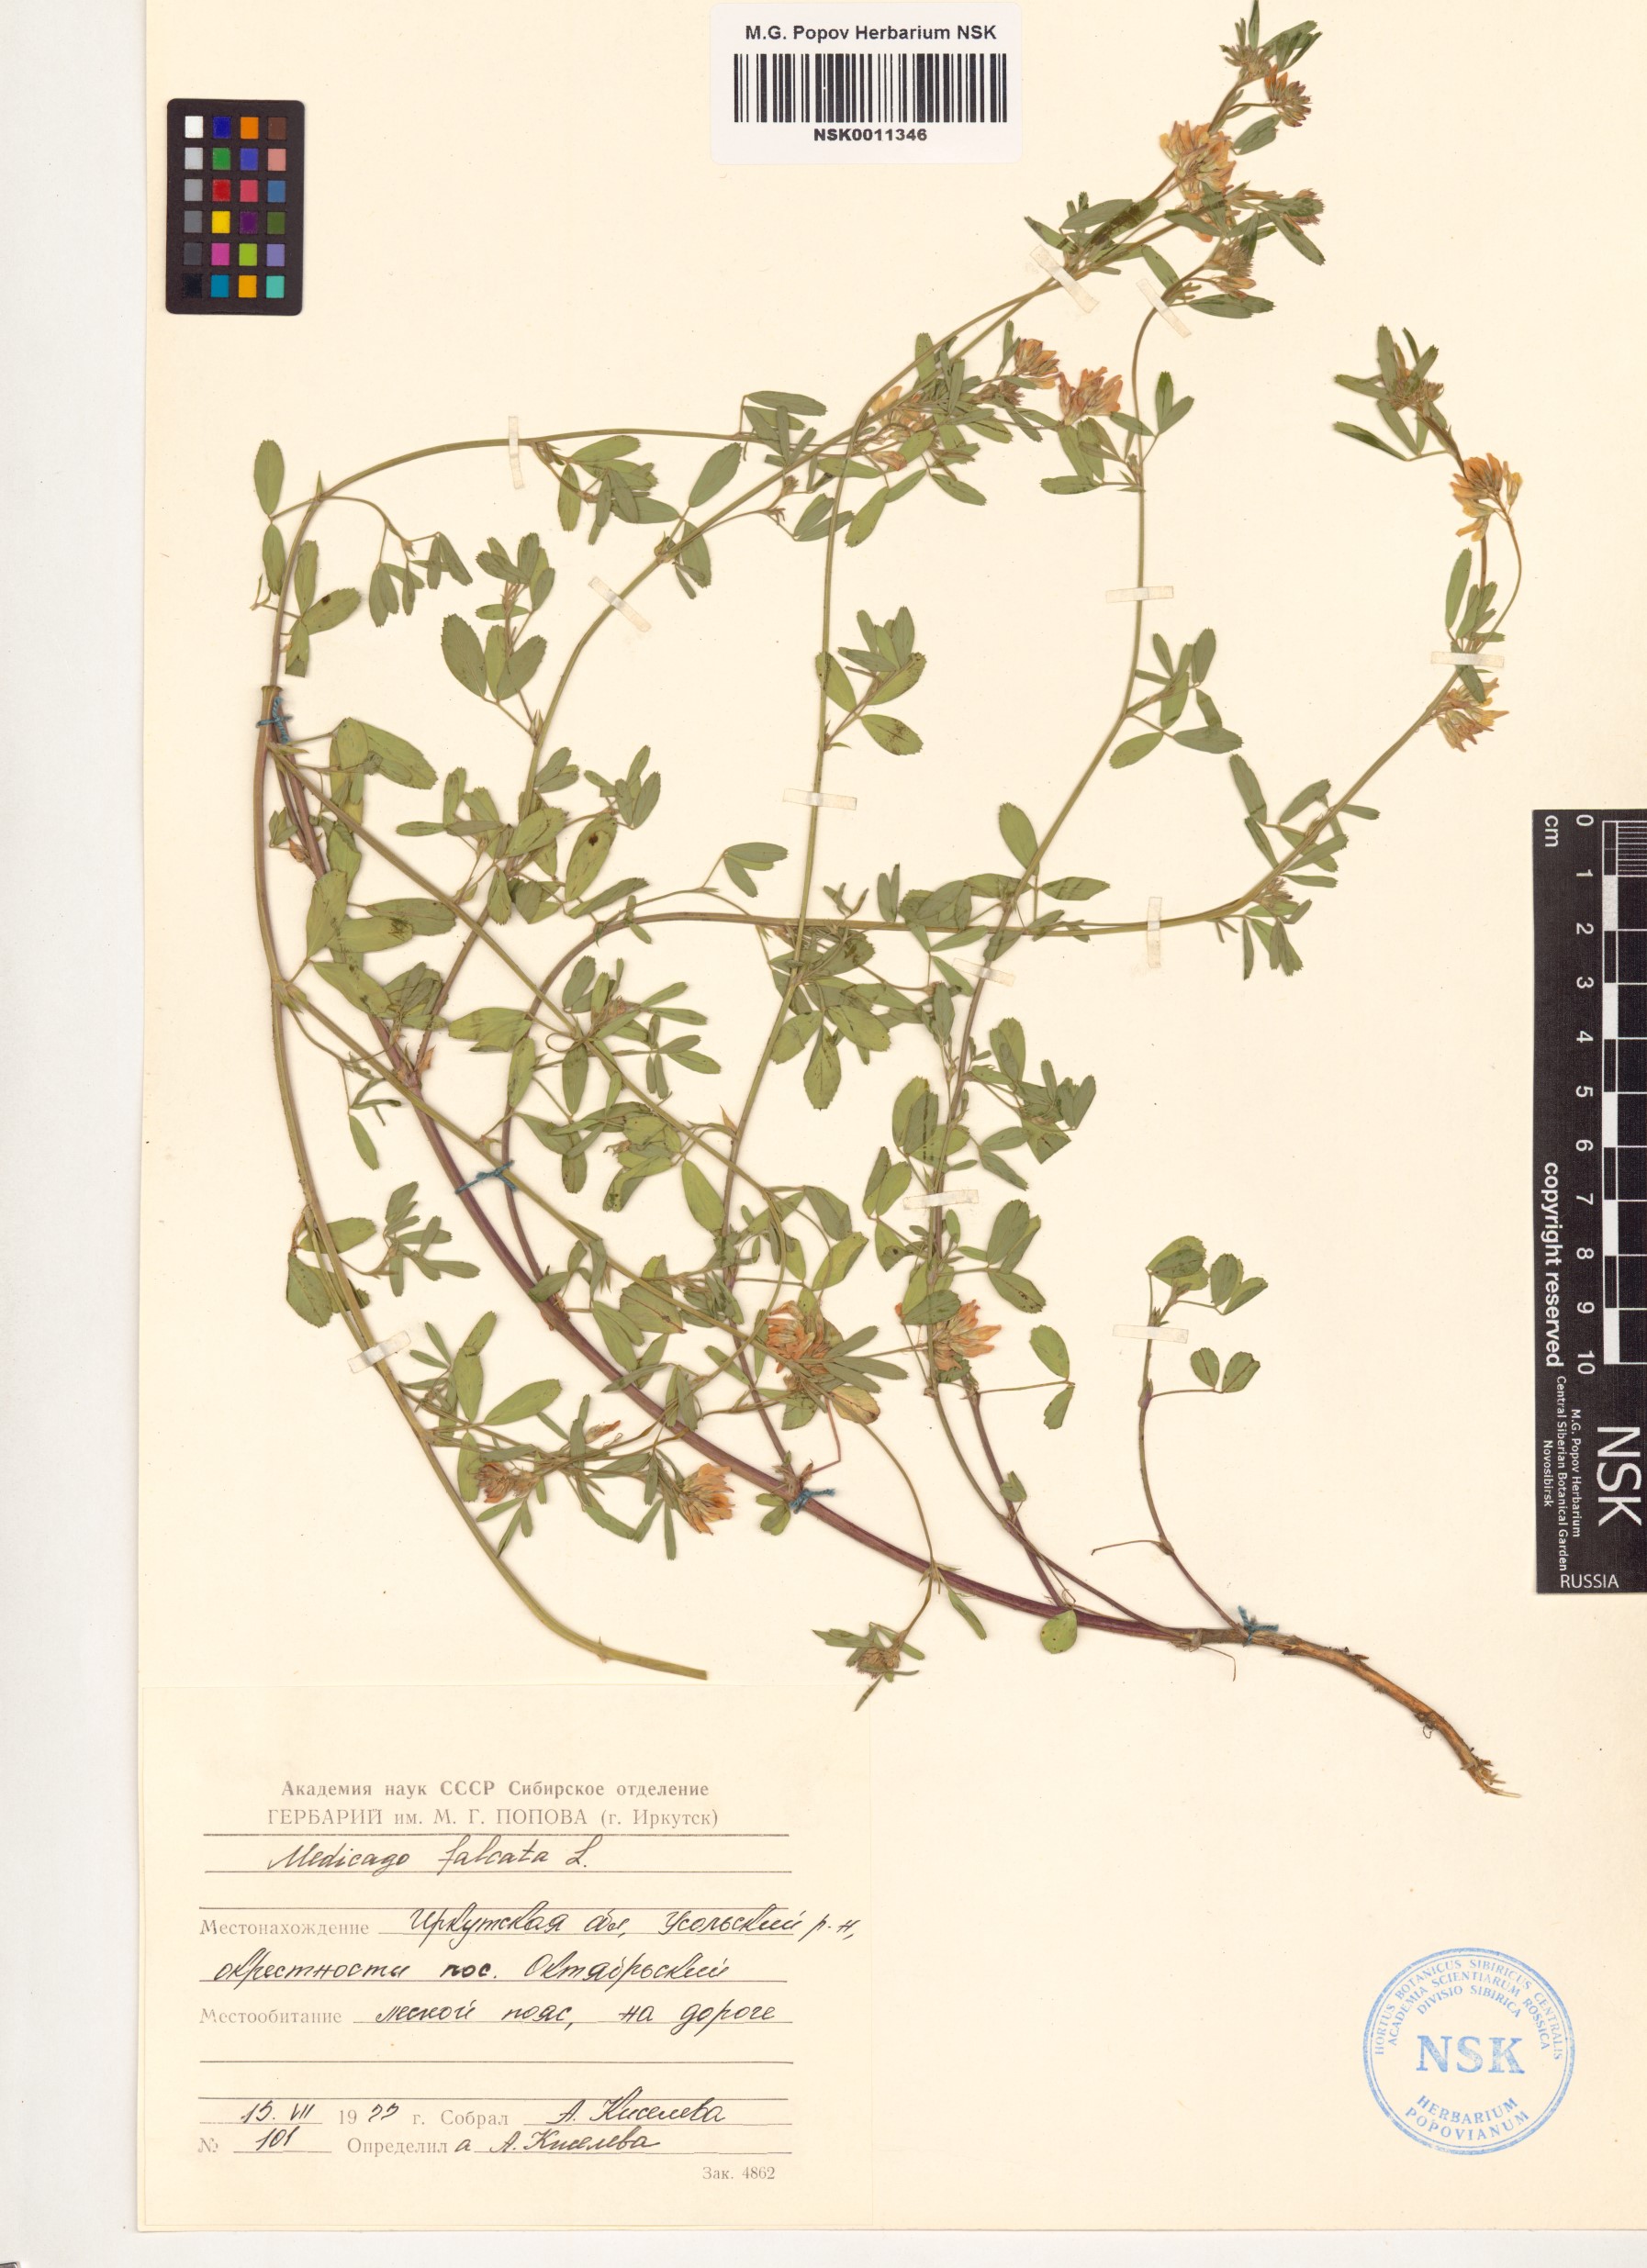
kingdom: Plantae
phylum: Tracheophyta
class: Magnoliopsida
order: Fabales
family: Fabaceae
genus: Medicago
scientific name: Medicago falcata
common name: Sickle medick
